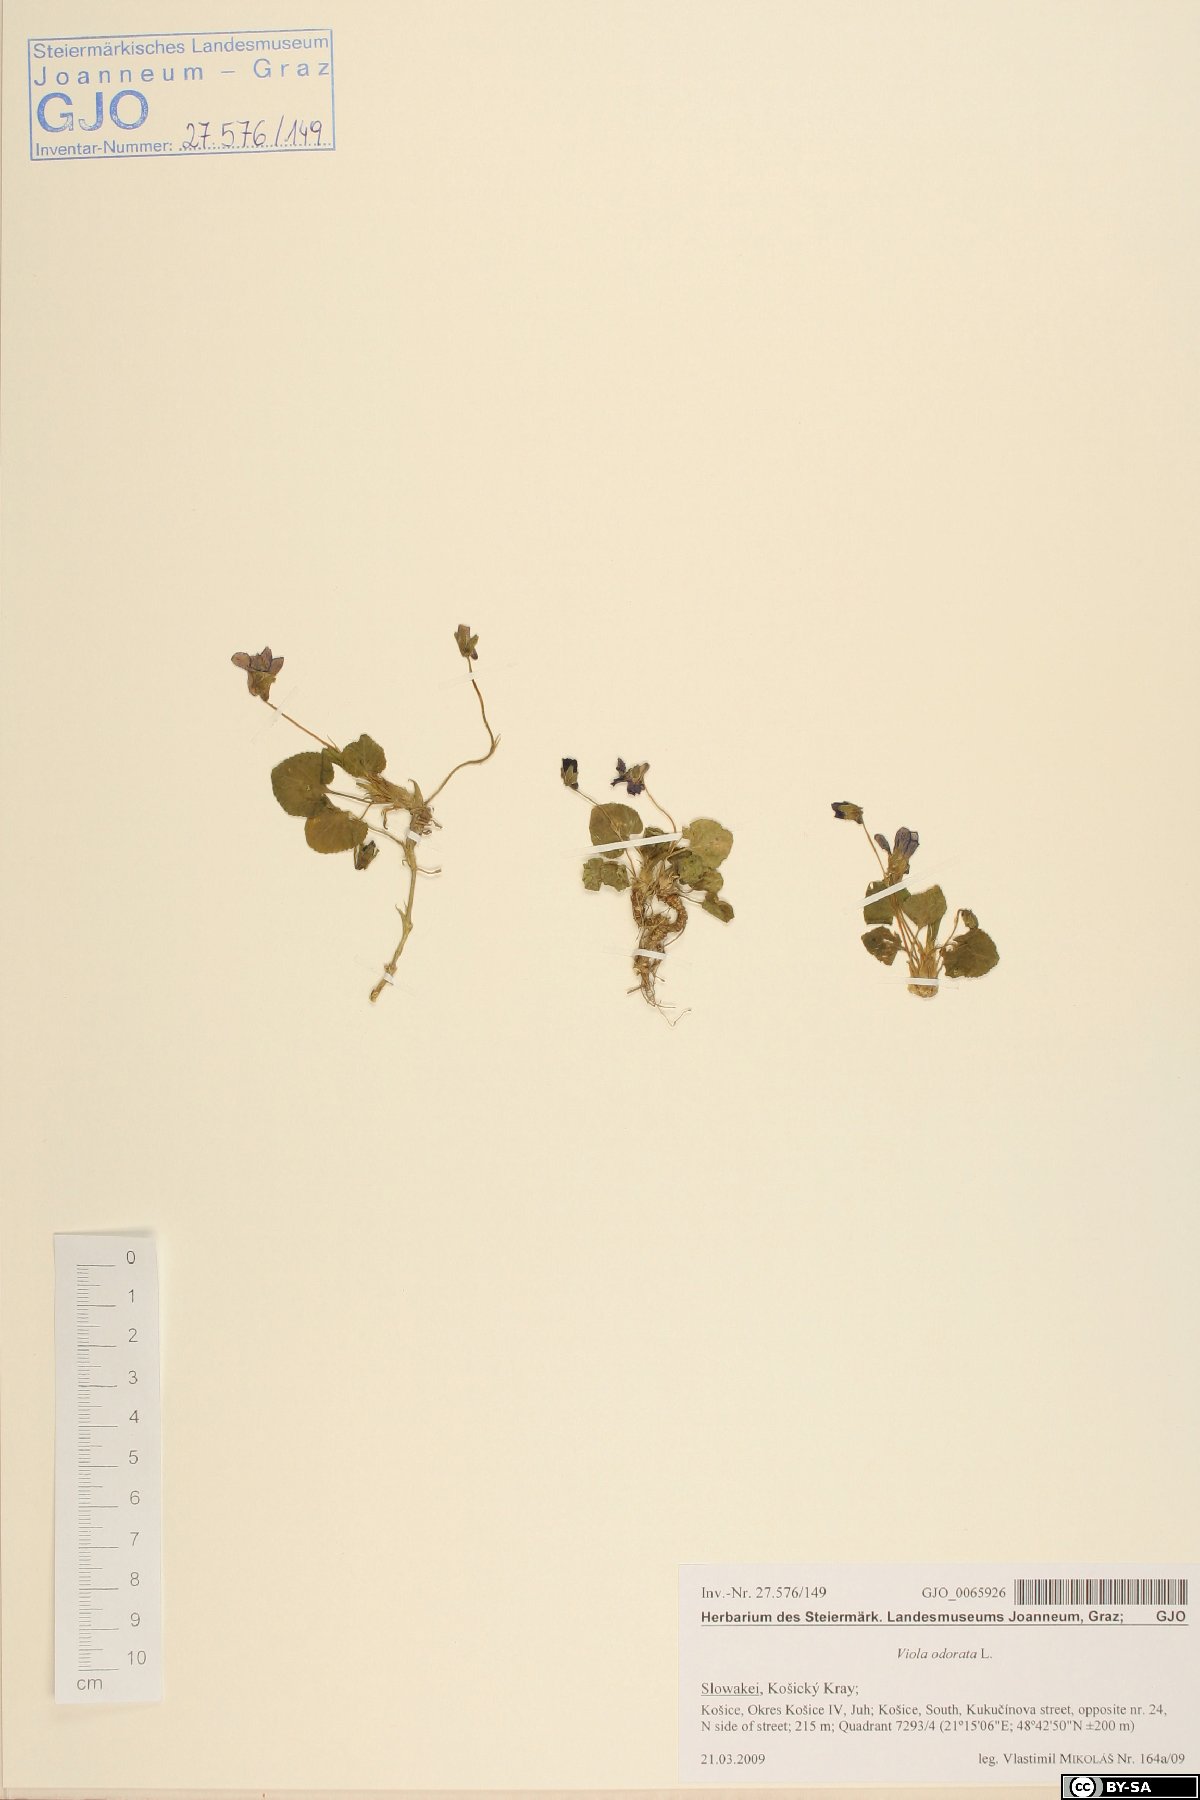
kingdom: Plantae
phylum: Tracheophyta
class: Magnoliopsida
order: Malpighiales
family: Violaceae
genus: Viola
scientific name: Viola odorata
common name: Sweet violet
